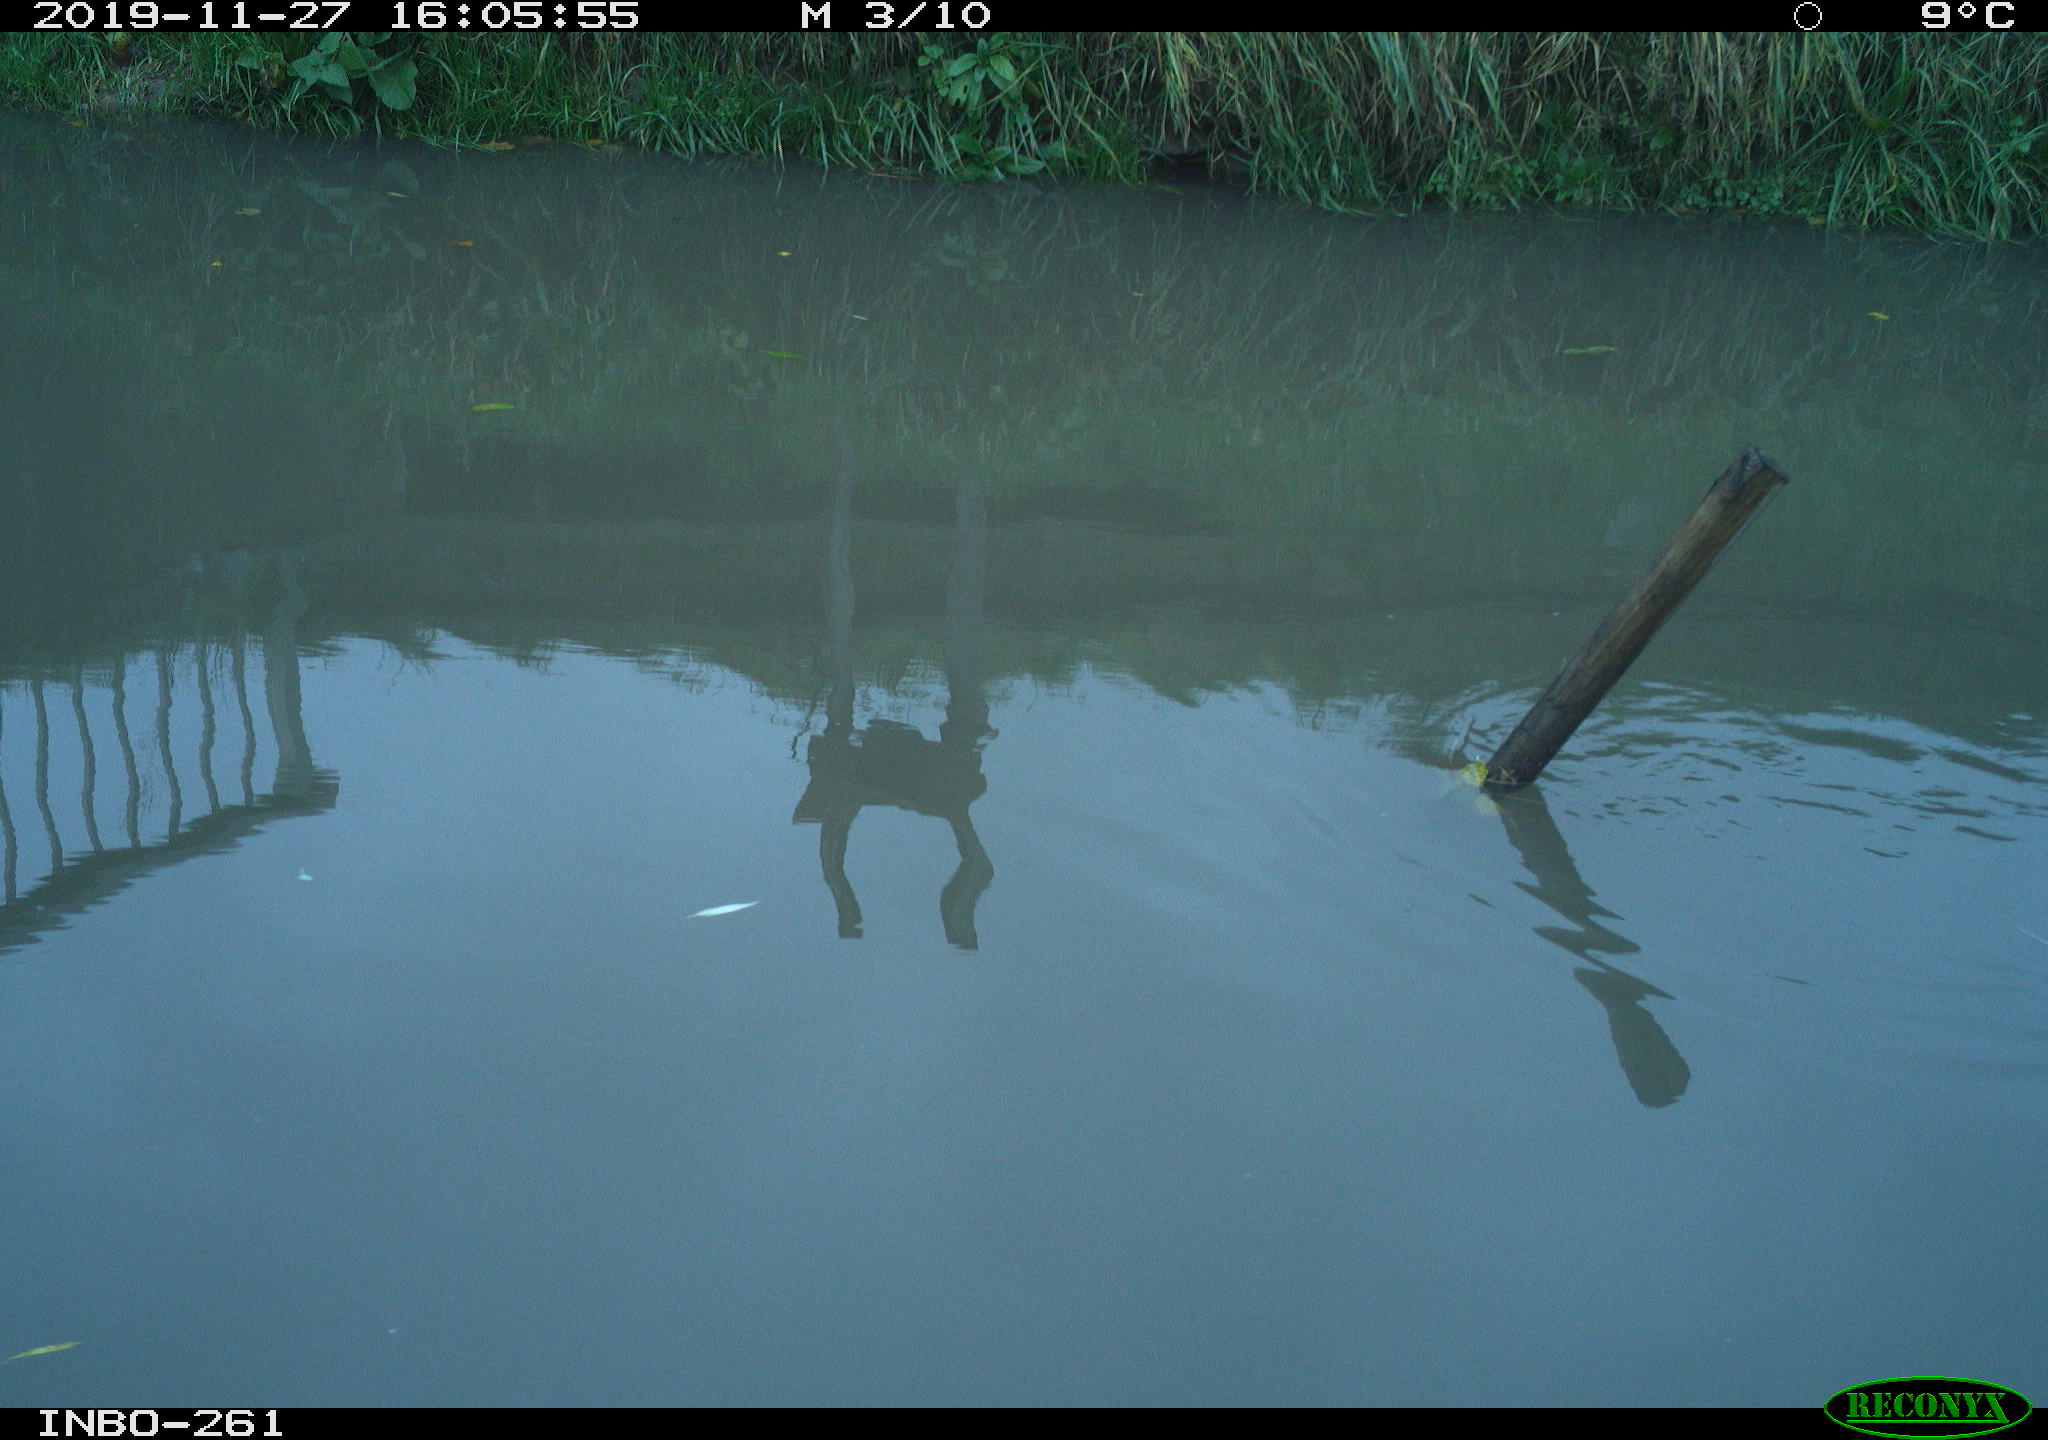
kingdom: Animalia
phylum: Chordata
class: Aves
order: Gruiformes
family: Rallidae
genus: Gallinula
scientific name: Gallinula chloropus
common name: Common moorhen
